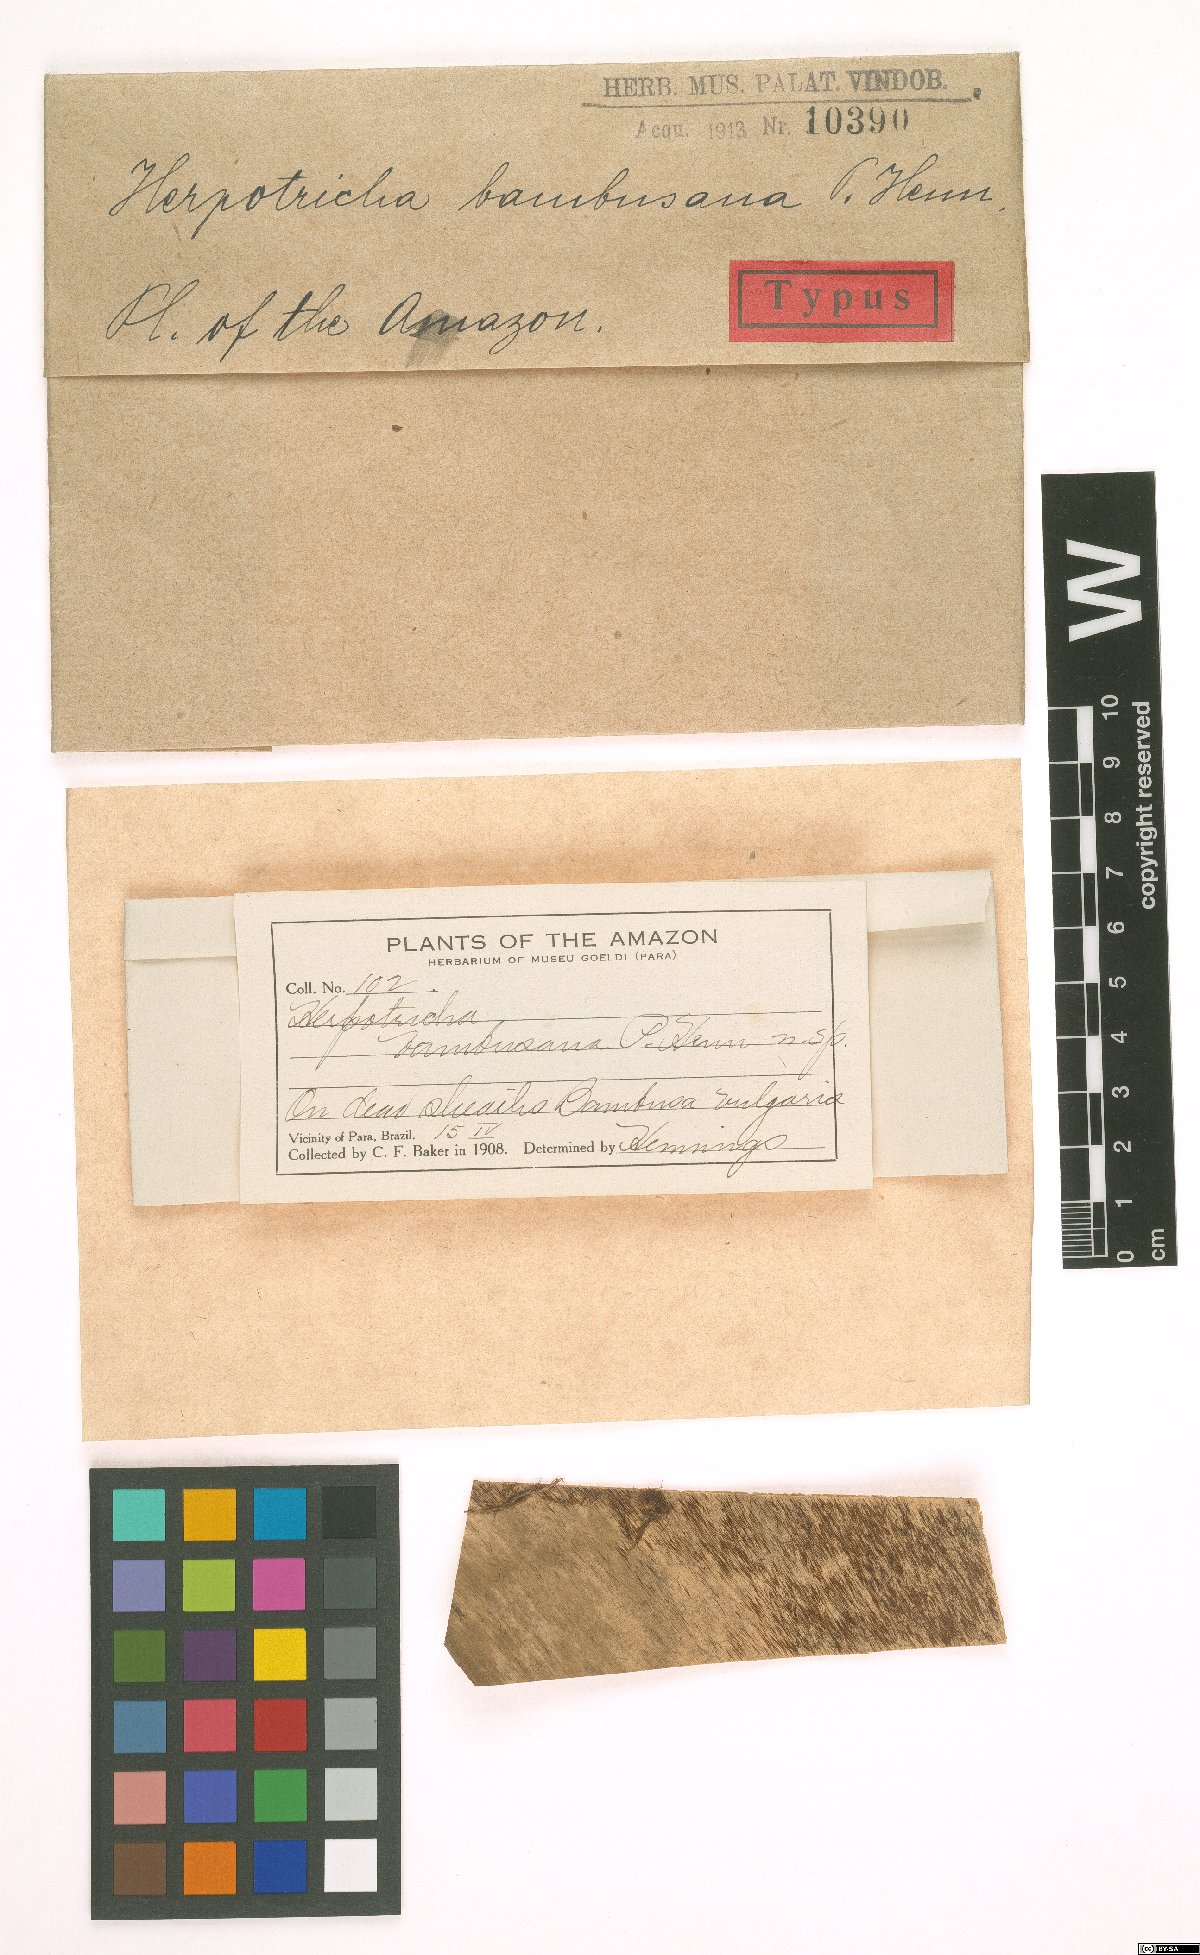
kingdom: Fungi
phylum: Ascomycota
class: Dothideomycetes
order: Pleosporales
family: Melanommataceae
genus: Herpotrichia
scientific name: Herpotrichia bambusana
